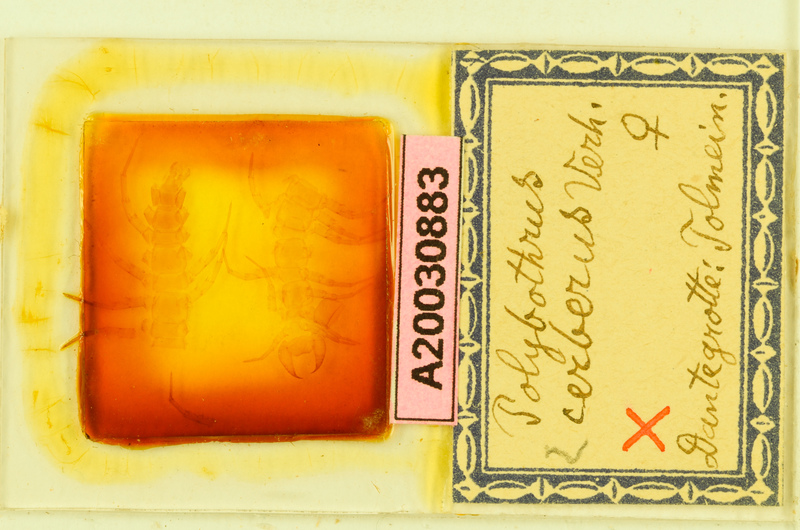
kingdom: Animalia
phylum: Arthropoda
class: Chilopoda
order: Lithobiomorpha
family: Lithobiidae
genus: Polybothrus
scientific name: Polybothrus cerberus
